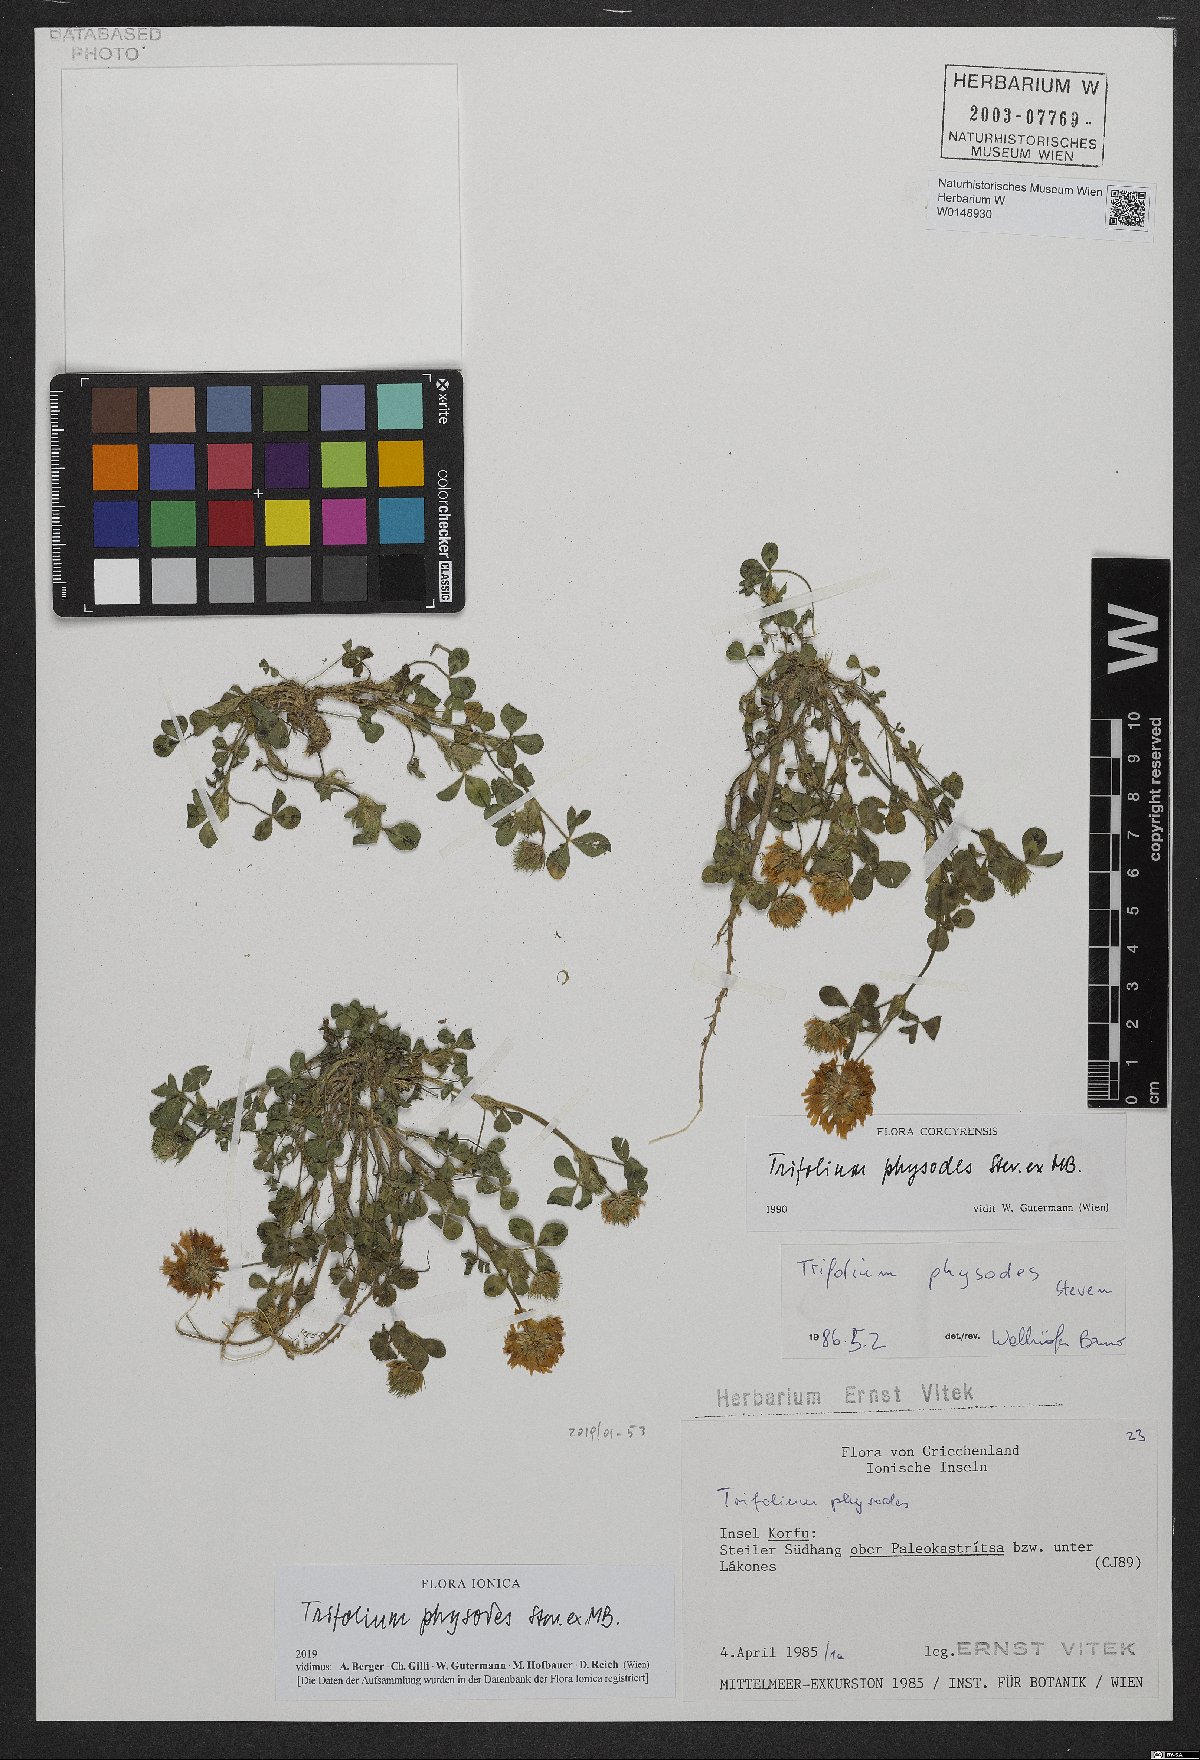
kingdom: Plantae
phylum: Tracheophyta
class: Magnoliopsida
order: Fabales
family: Fabaceae
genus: Trifolium
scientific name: Trifolium physodes
